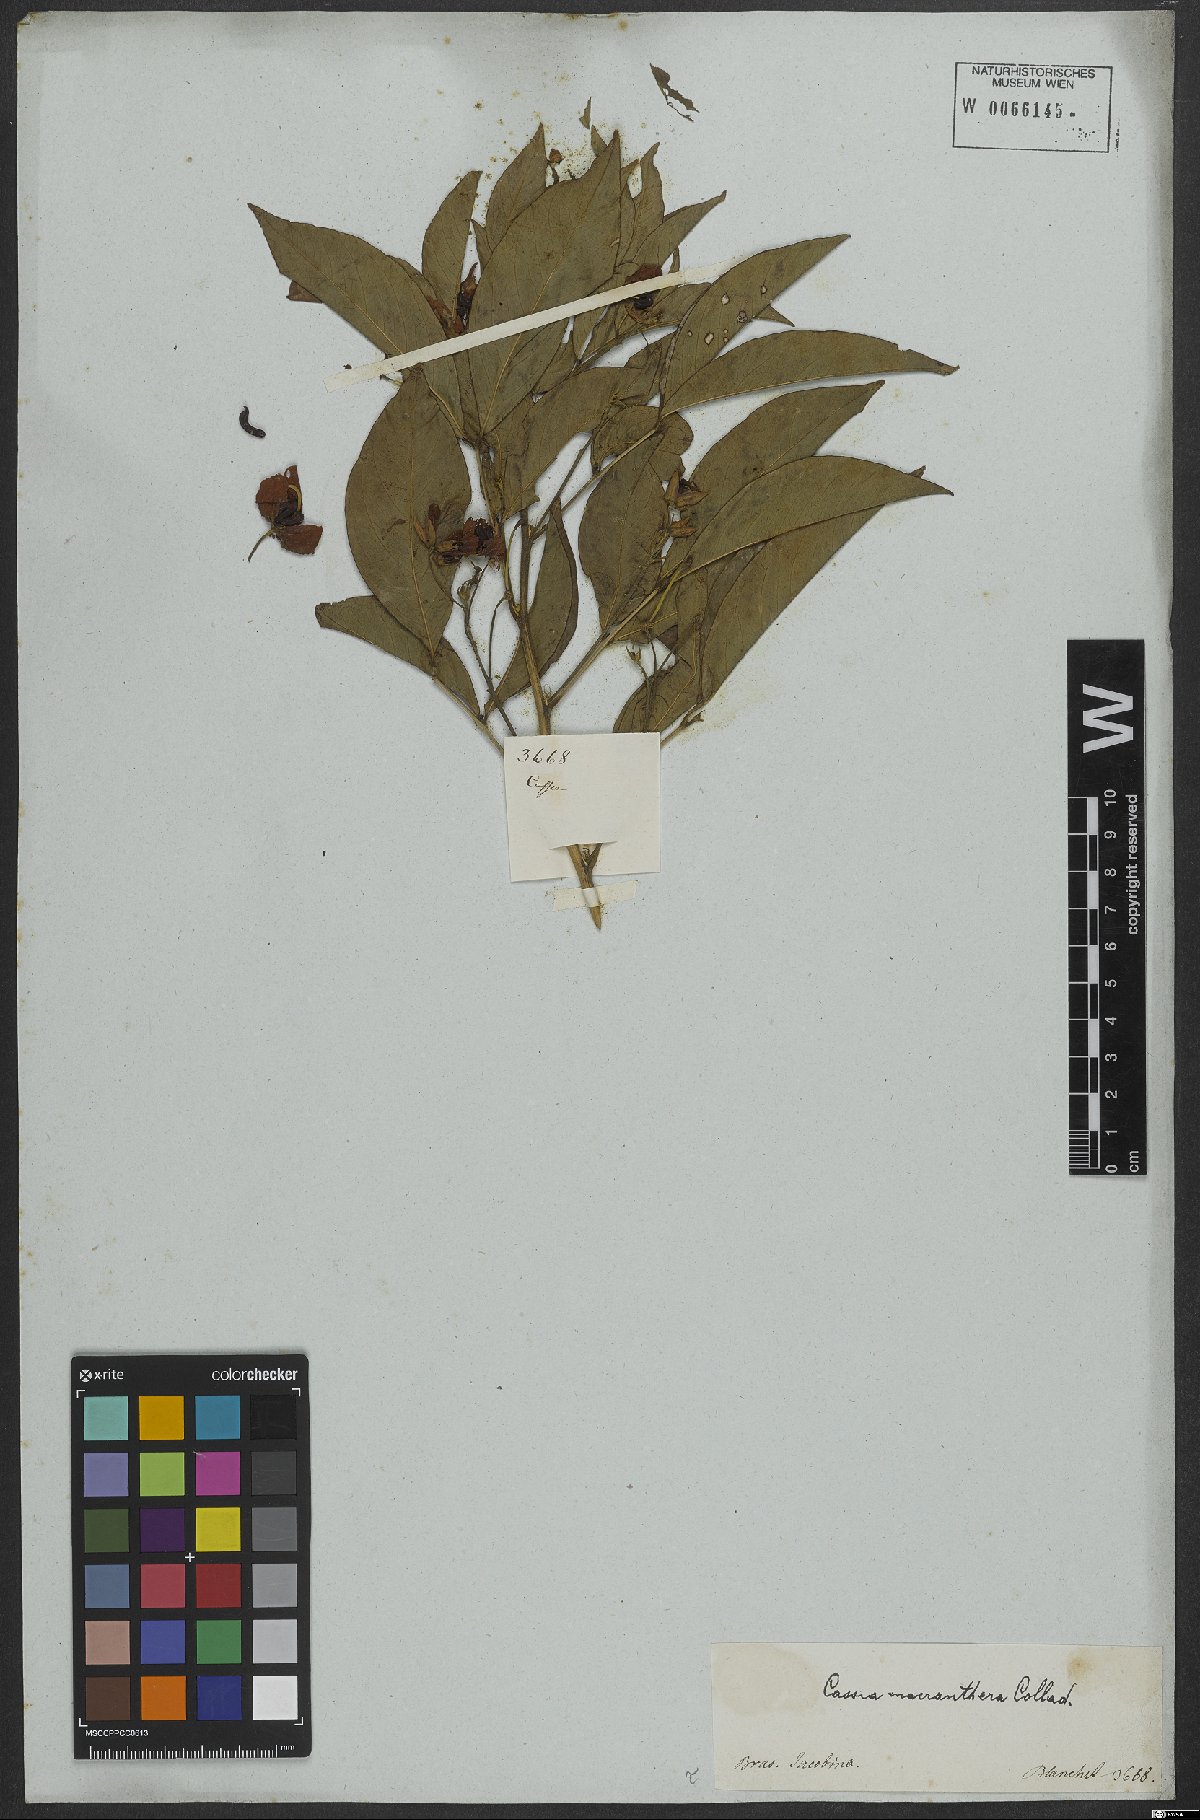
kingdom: Plantae
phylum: Tracheophyta
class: Magnoliopsida
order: Fabales
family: Fabaceae
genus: Senna
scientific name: Senna macranthera
